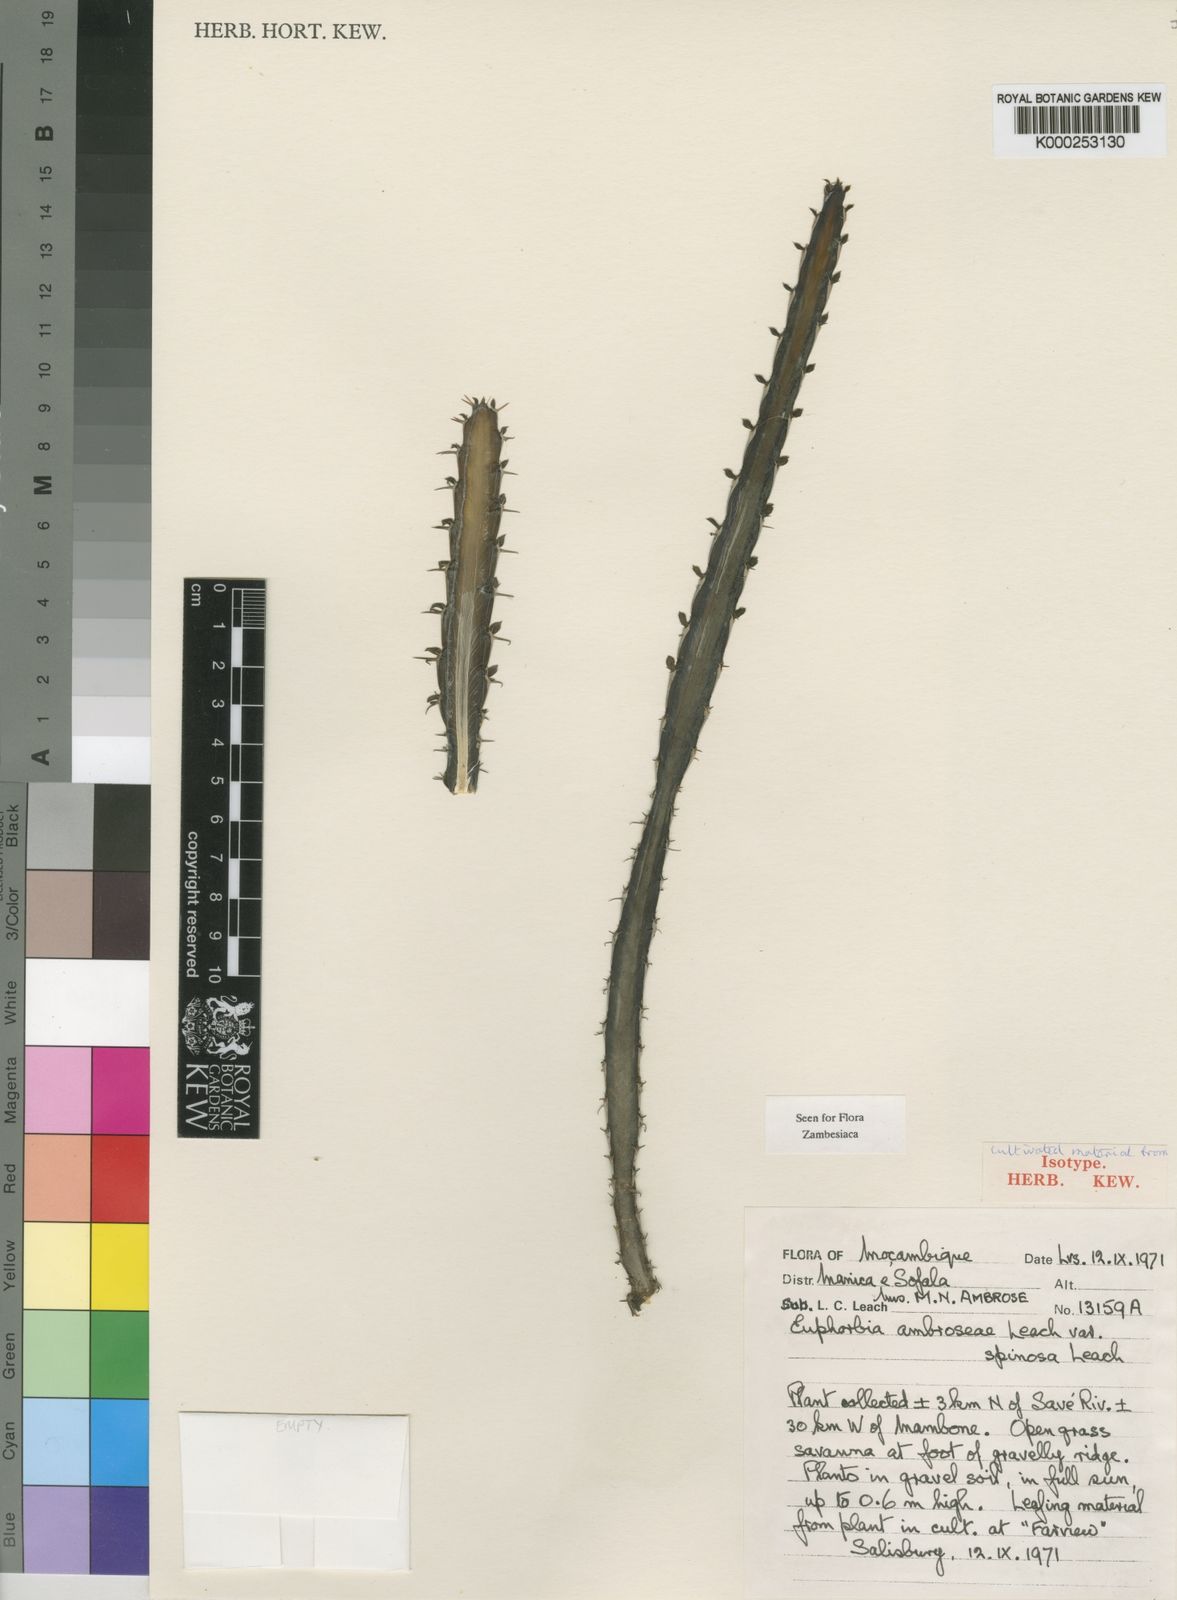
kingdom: Plantae
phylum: Tracheophyta
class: Magnoliopsida
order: Malpighiales
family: Euphorbiaceae
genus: Euphorbia
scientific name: Euphorbia ambroseae
